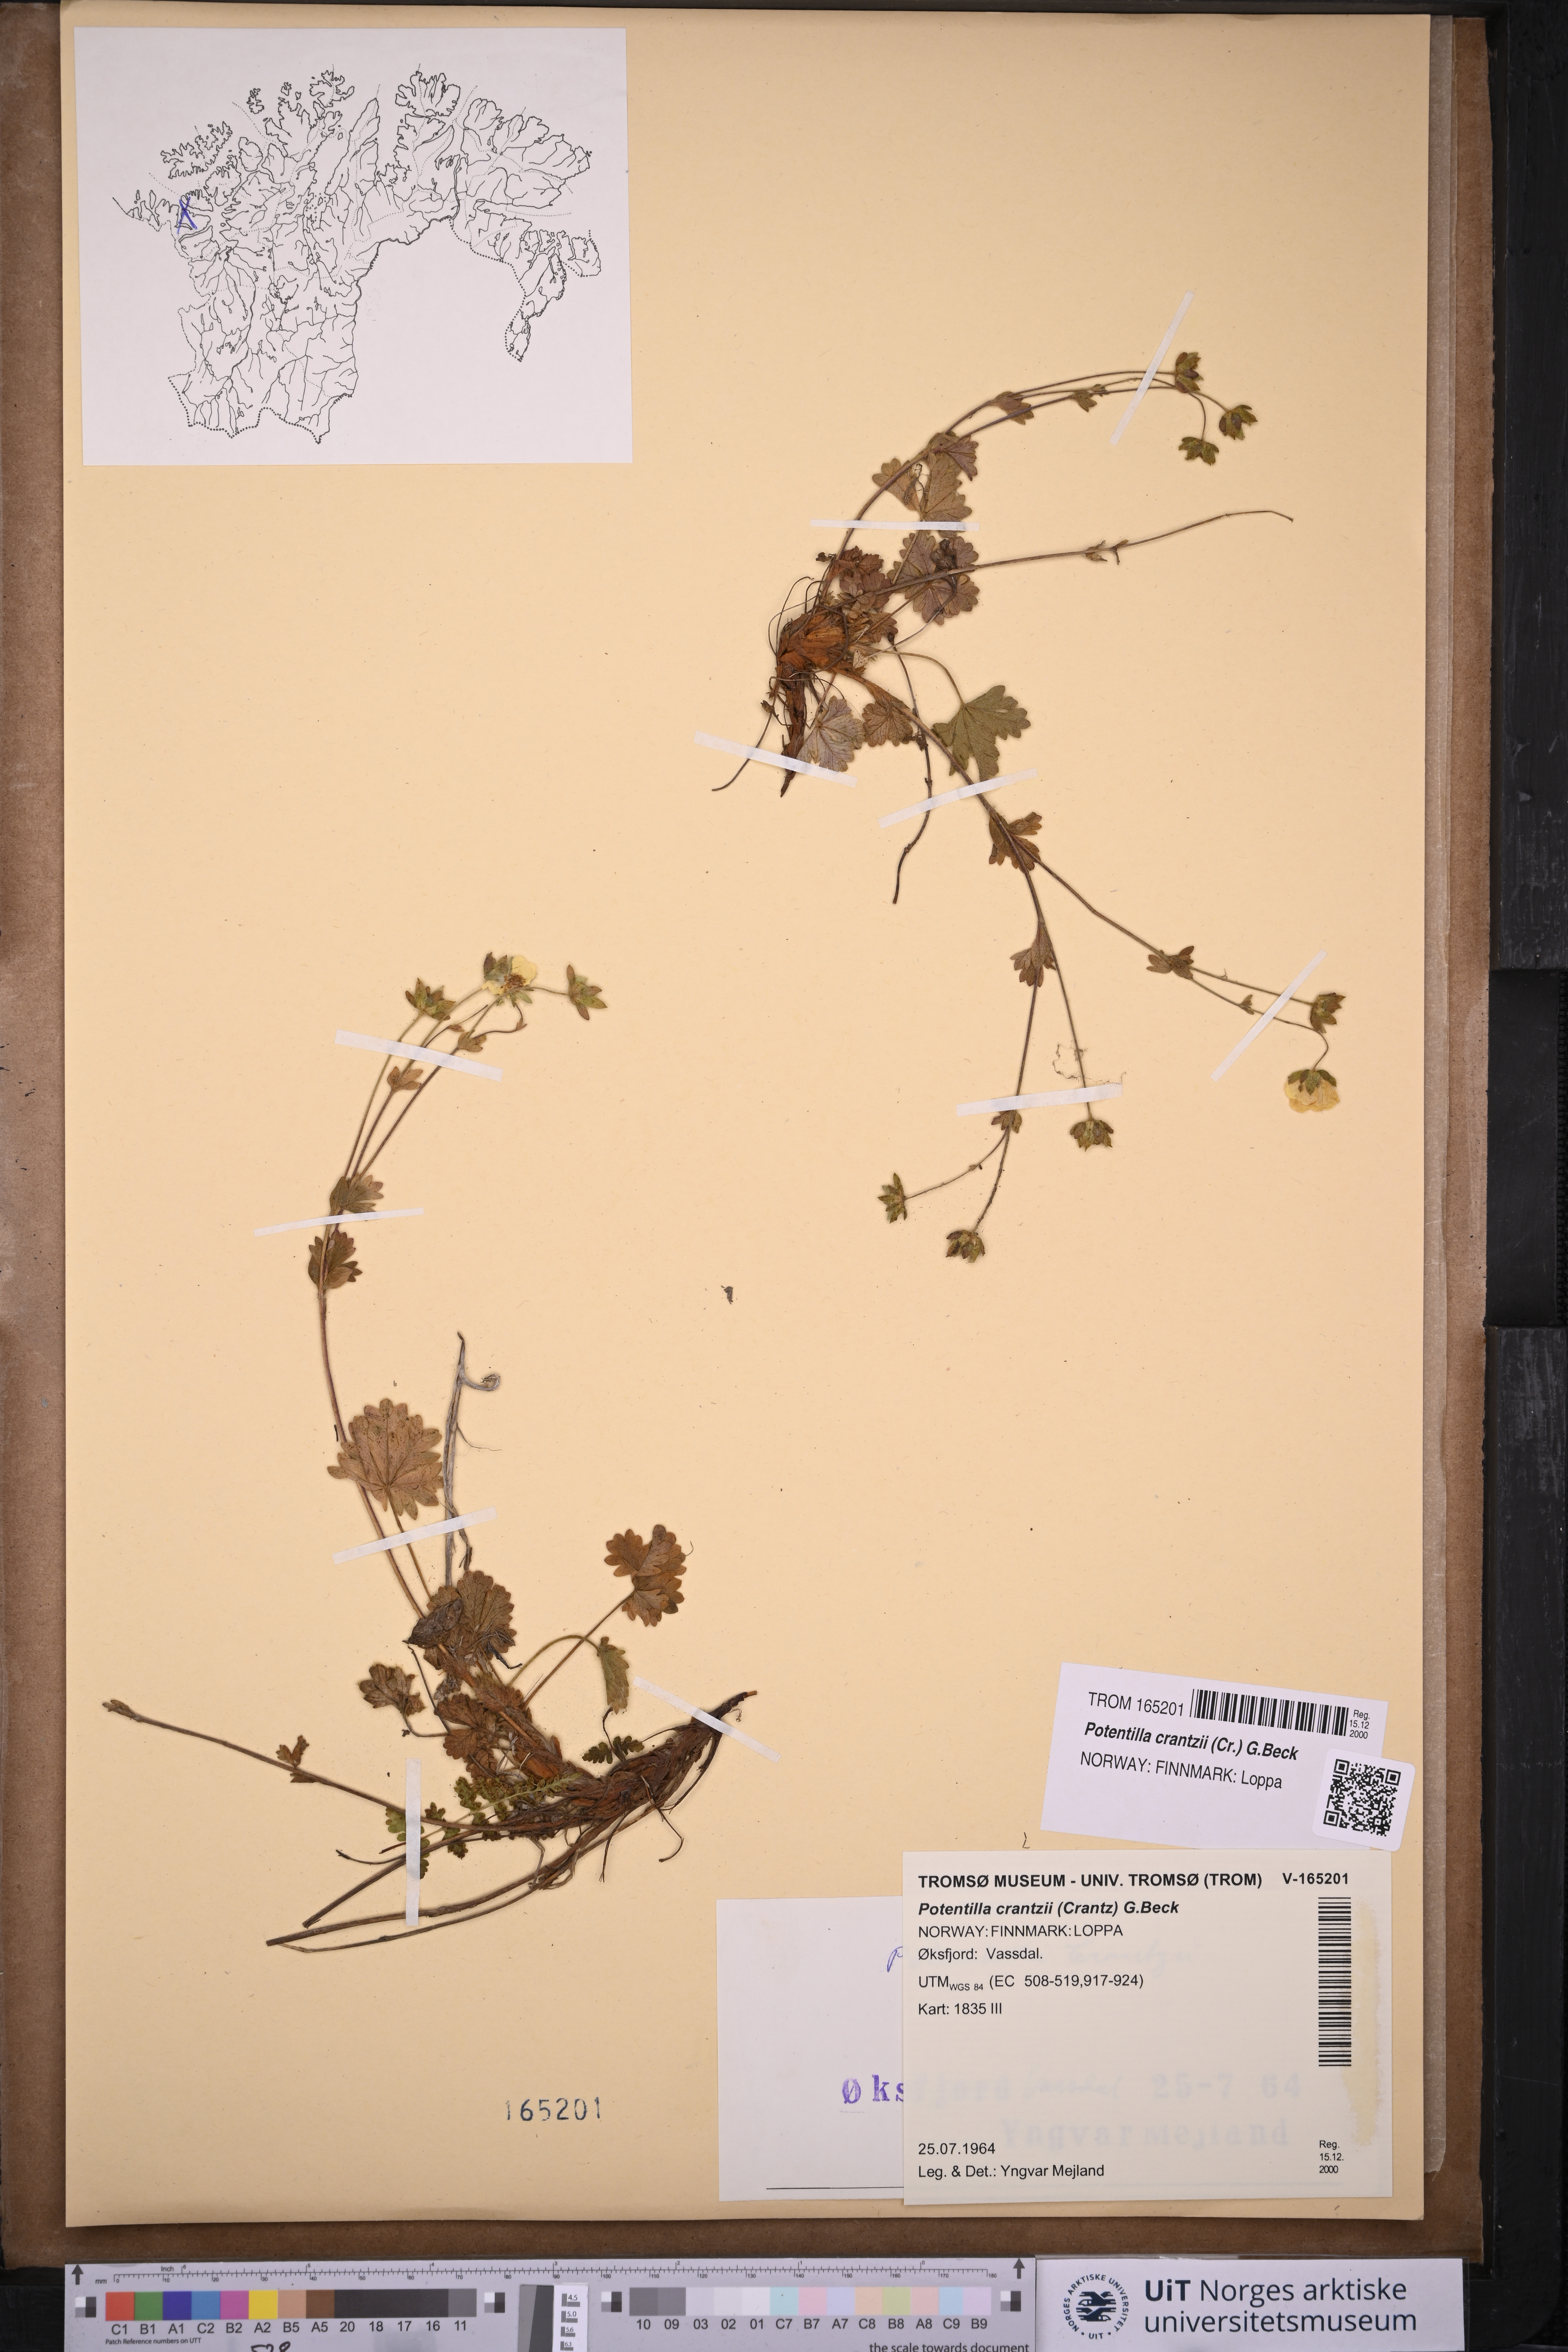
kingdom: Plantae
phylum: Tracheophyta
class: Magnoliopsida
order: Rosales
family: Rosaceae
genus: Potentilla
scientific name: Potentilla crantzii
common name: Alpine cinquefoil
